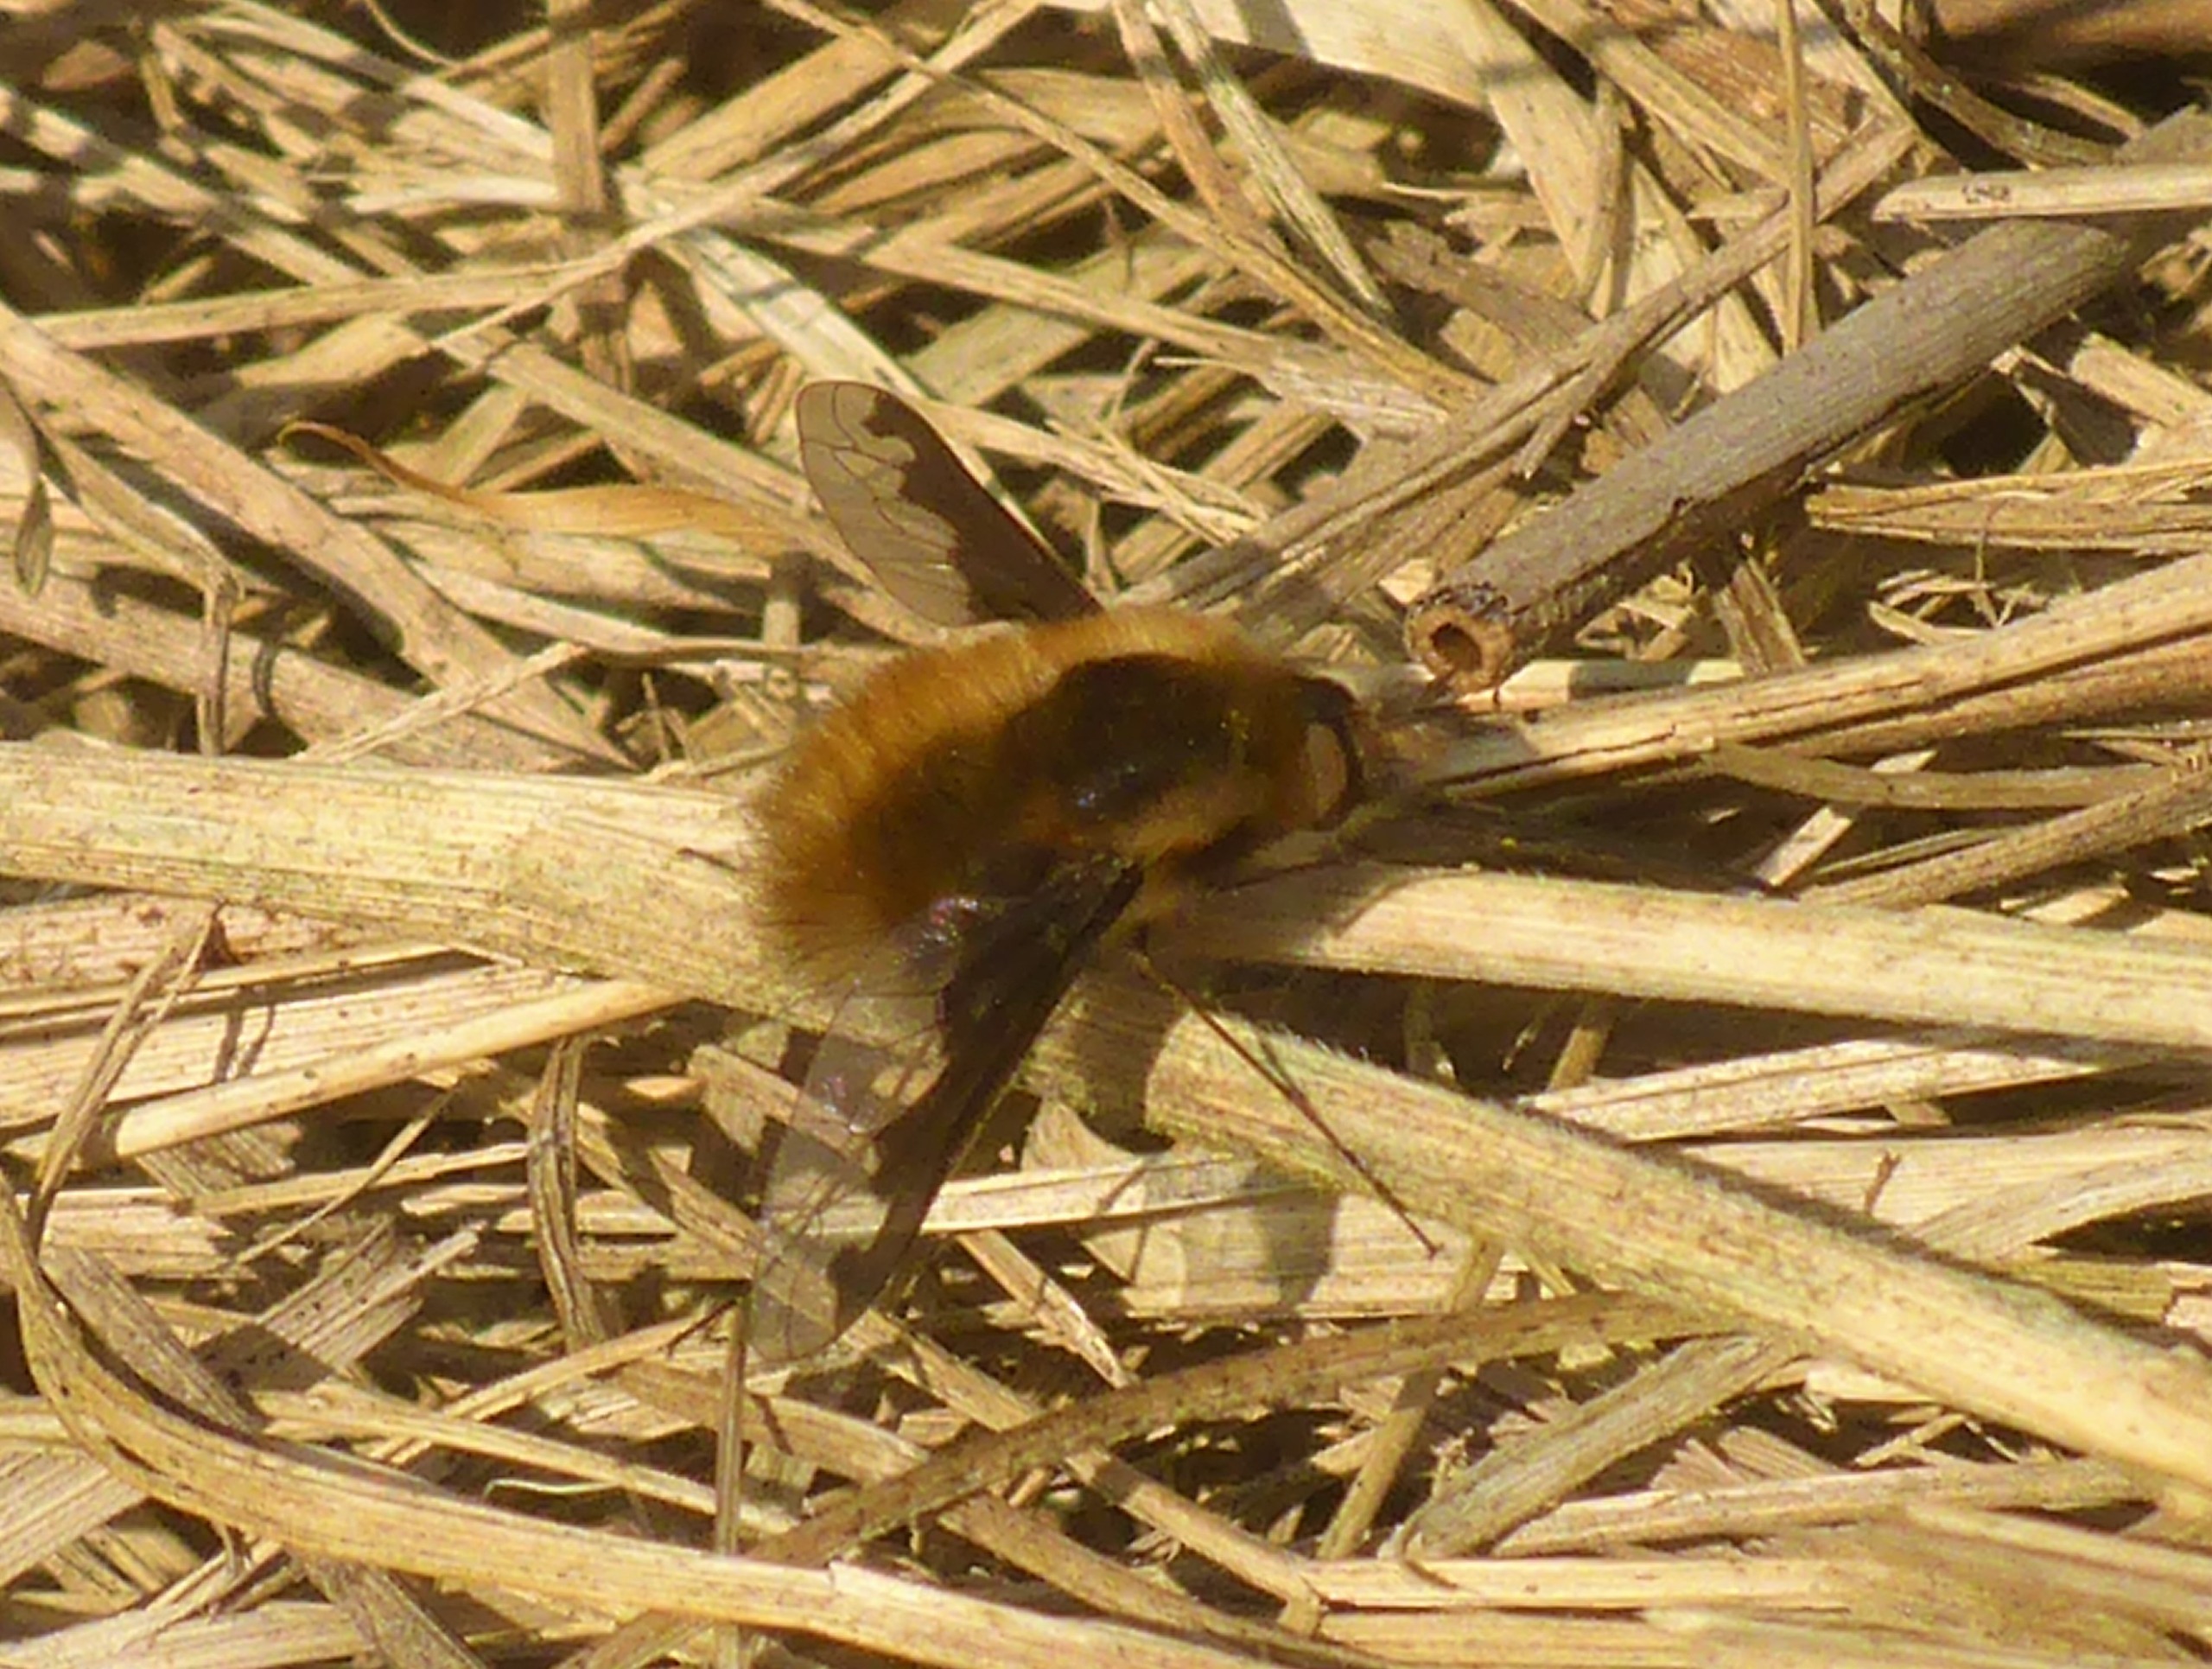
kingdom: Animalia
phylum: Arthropoda
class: Insecta
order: Diptera
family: Bombyliidae
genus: Bombylius
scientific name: Bombylius major
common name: Stor humleflue
